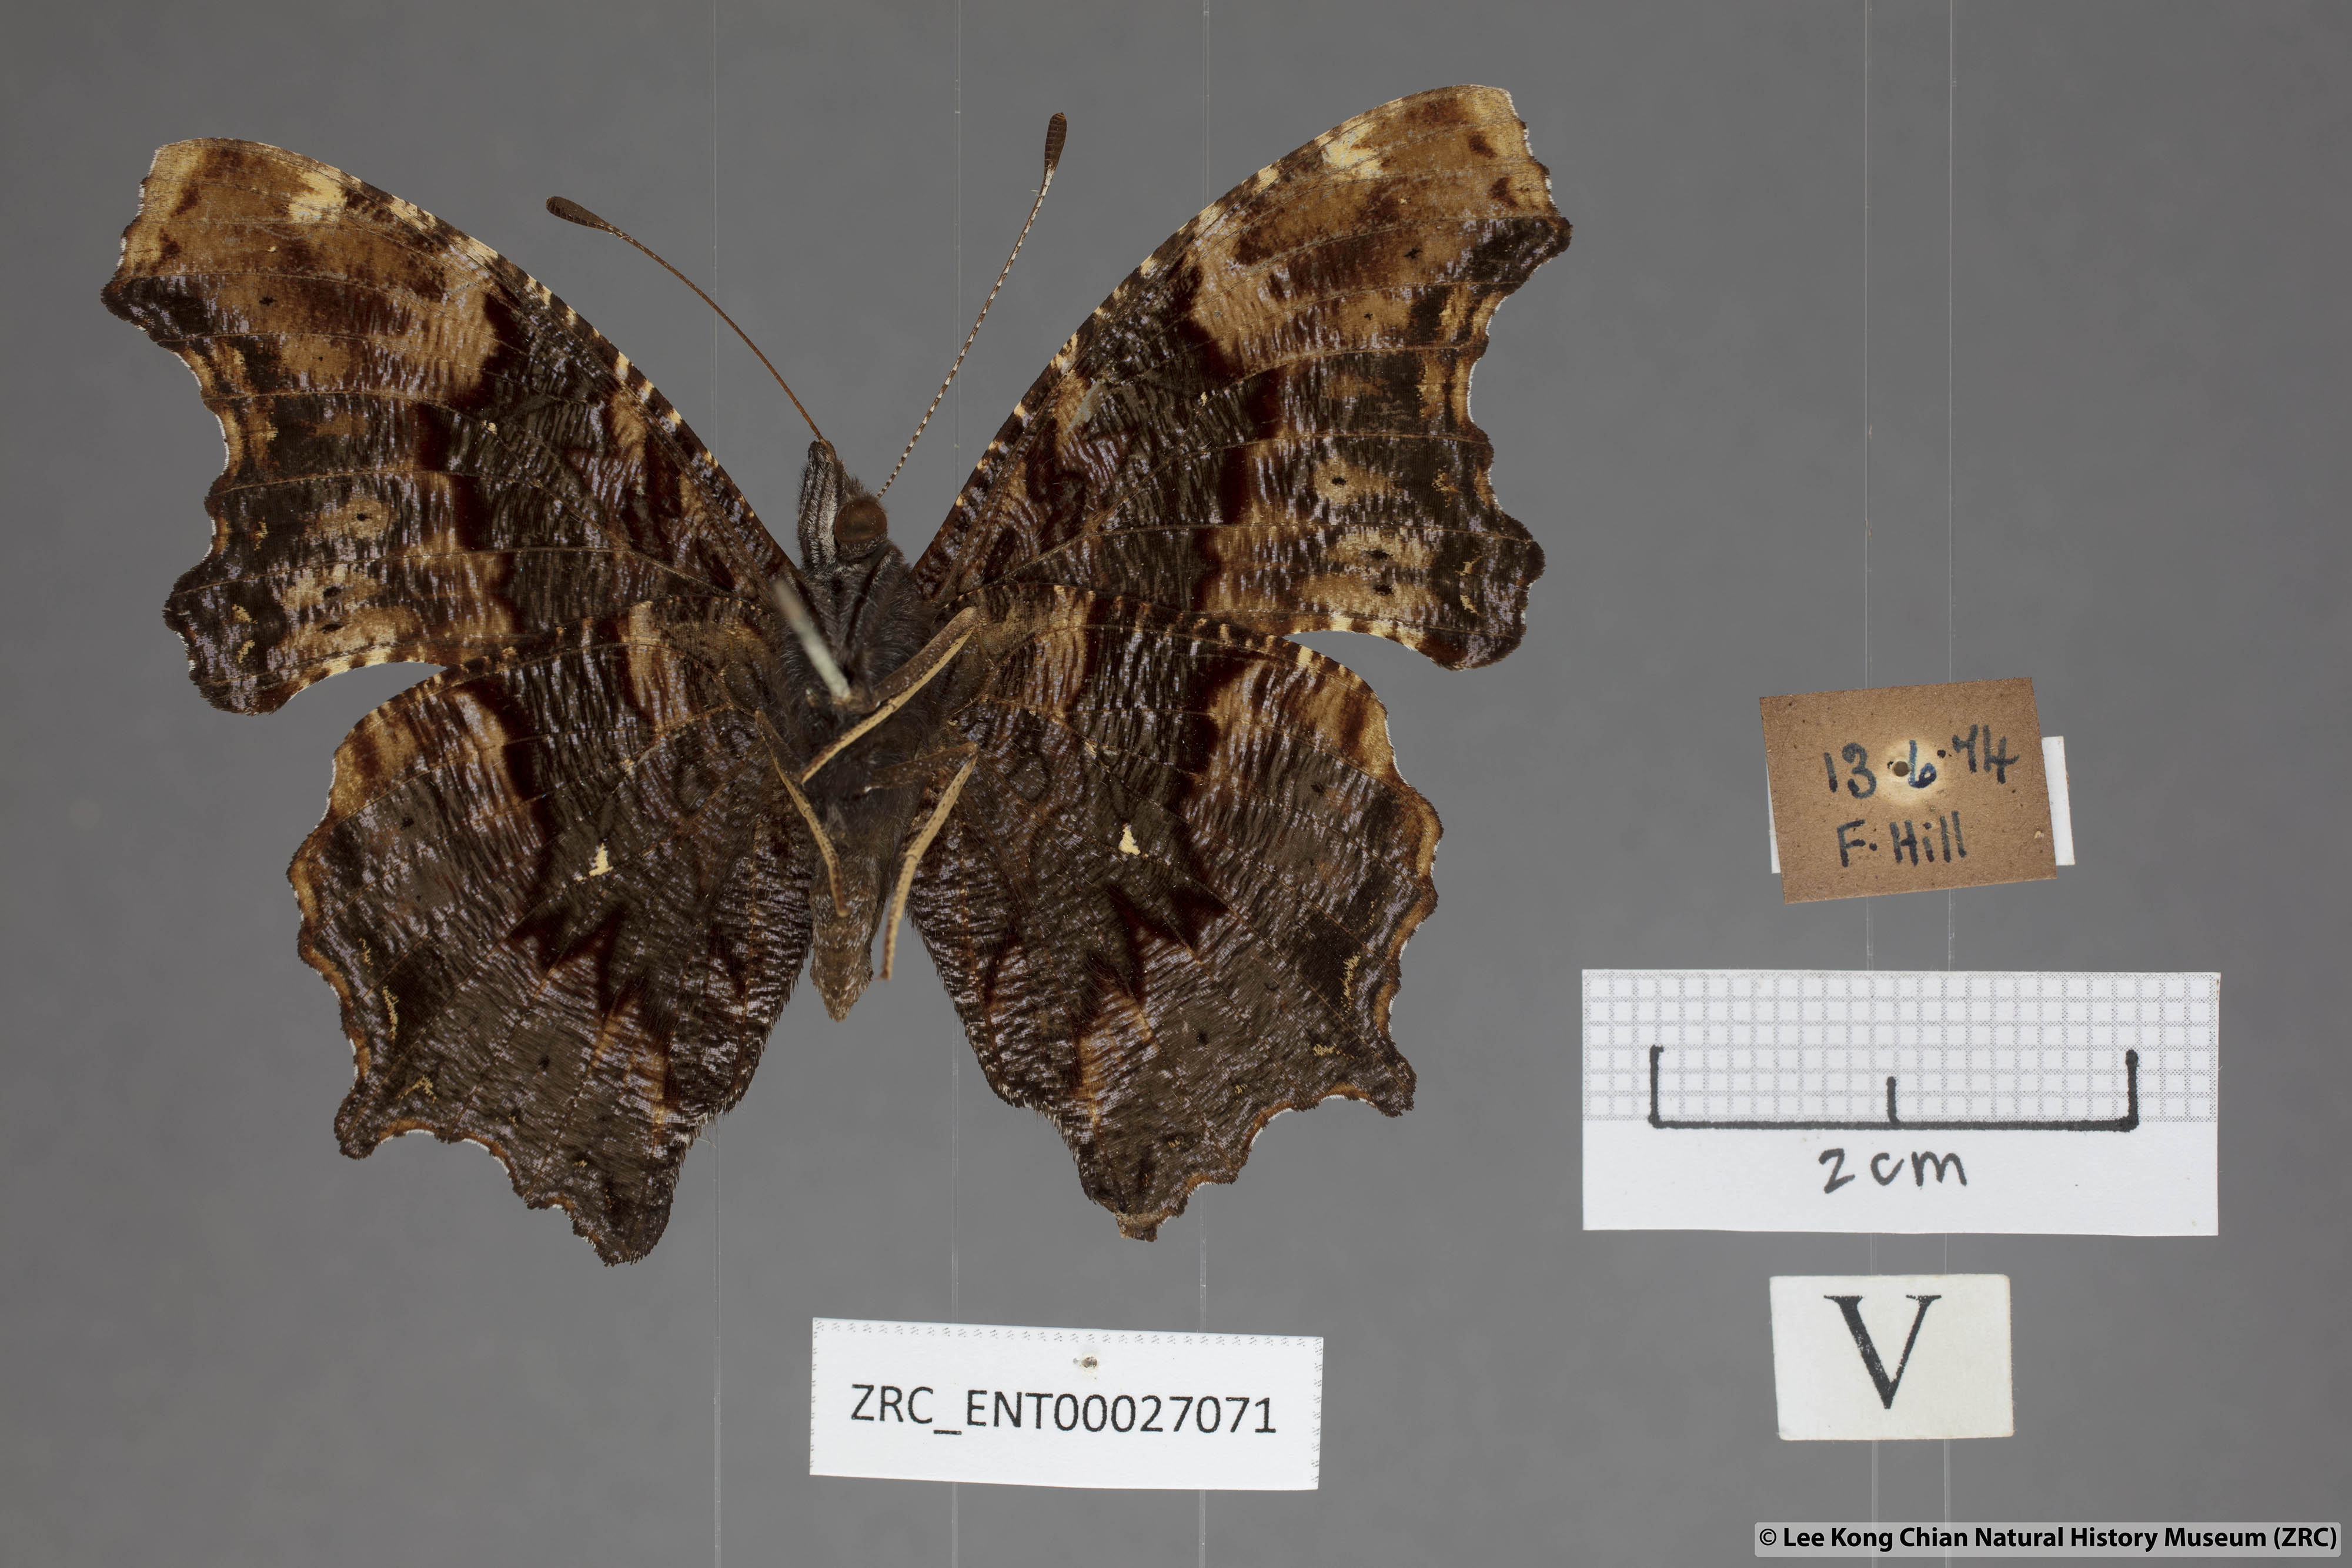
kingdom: Animalia
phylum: Arthropoda
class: Insecta
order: Lepidoptera
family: Nymphalidae
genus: Vanessa
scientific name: Vanessa Kaniska canace
